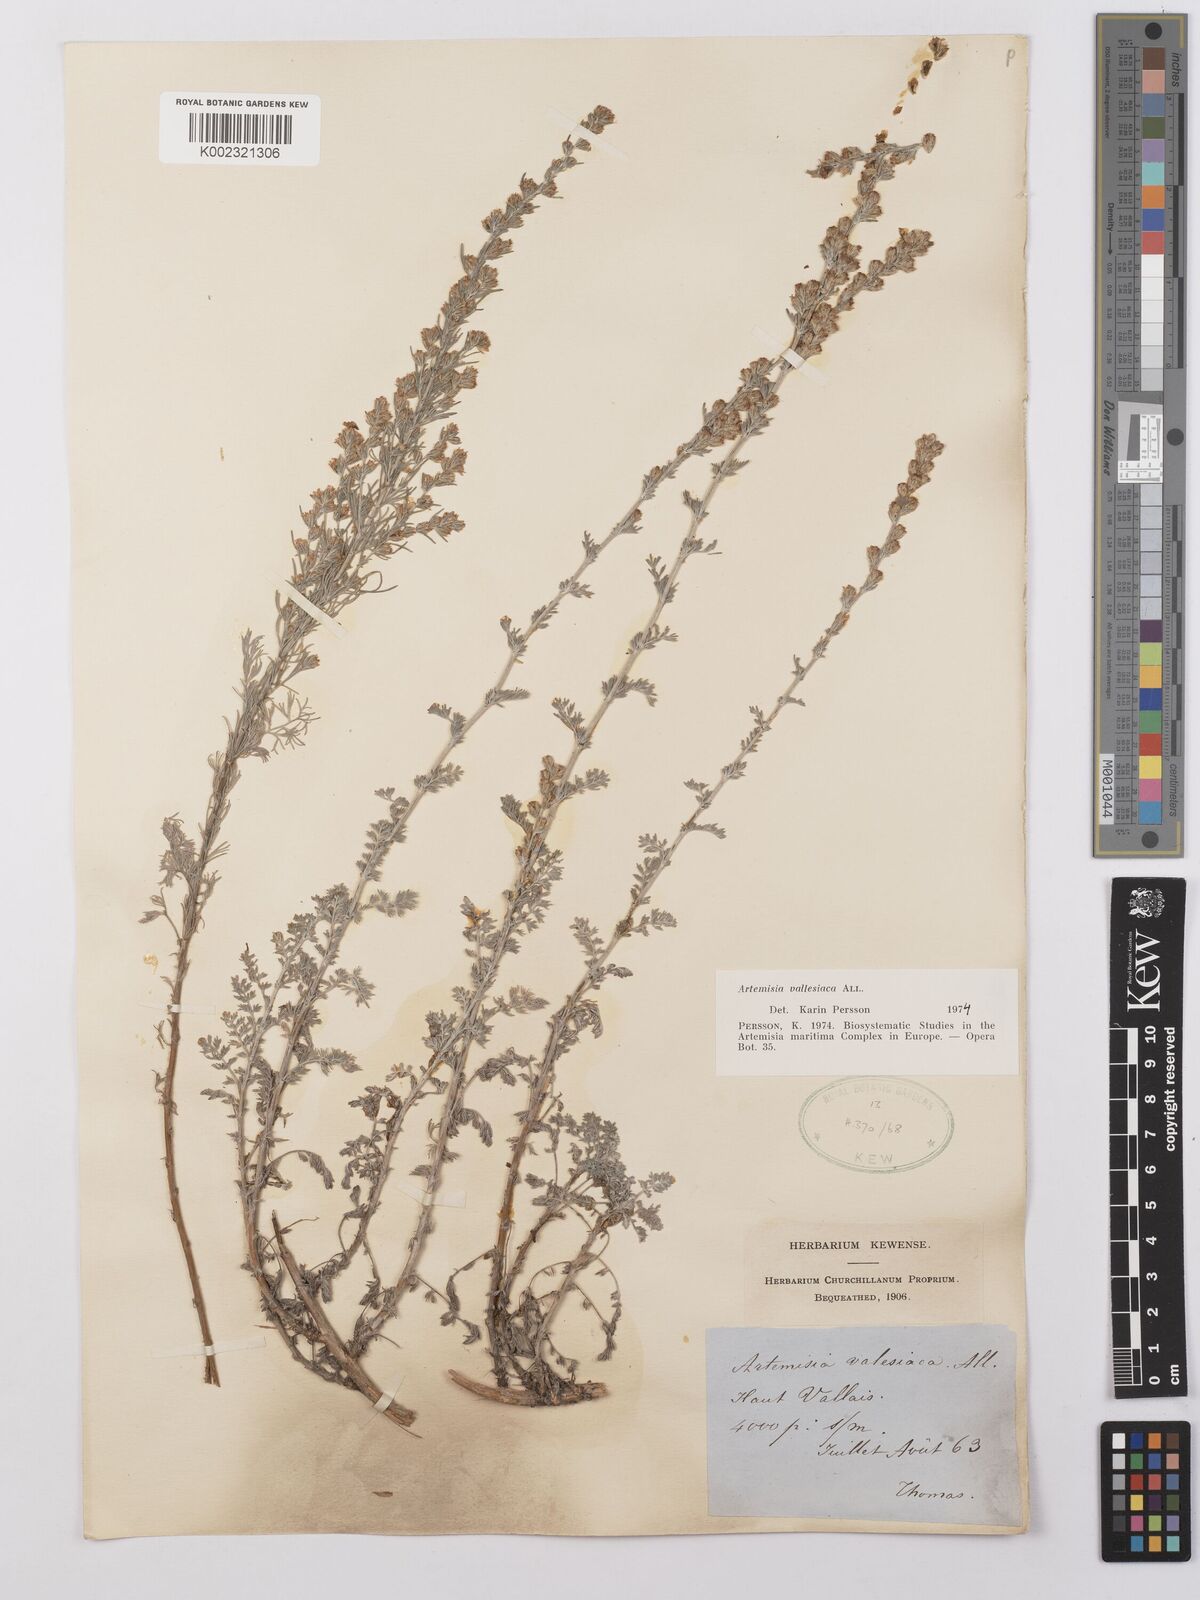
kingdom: Plantae
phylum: Tracheophyta
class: Magnoliopsida
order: Asterales
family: Asteraceae
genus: Artemisia
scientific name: Artemisia vallesiaca
